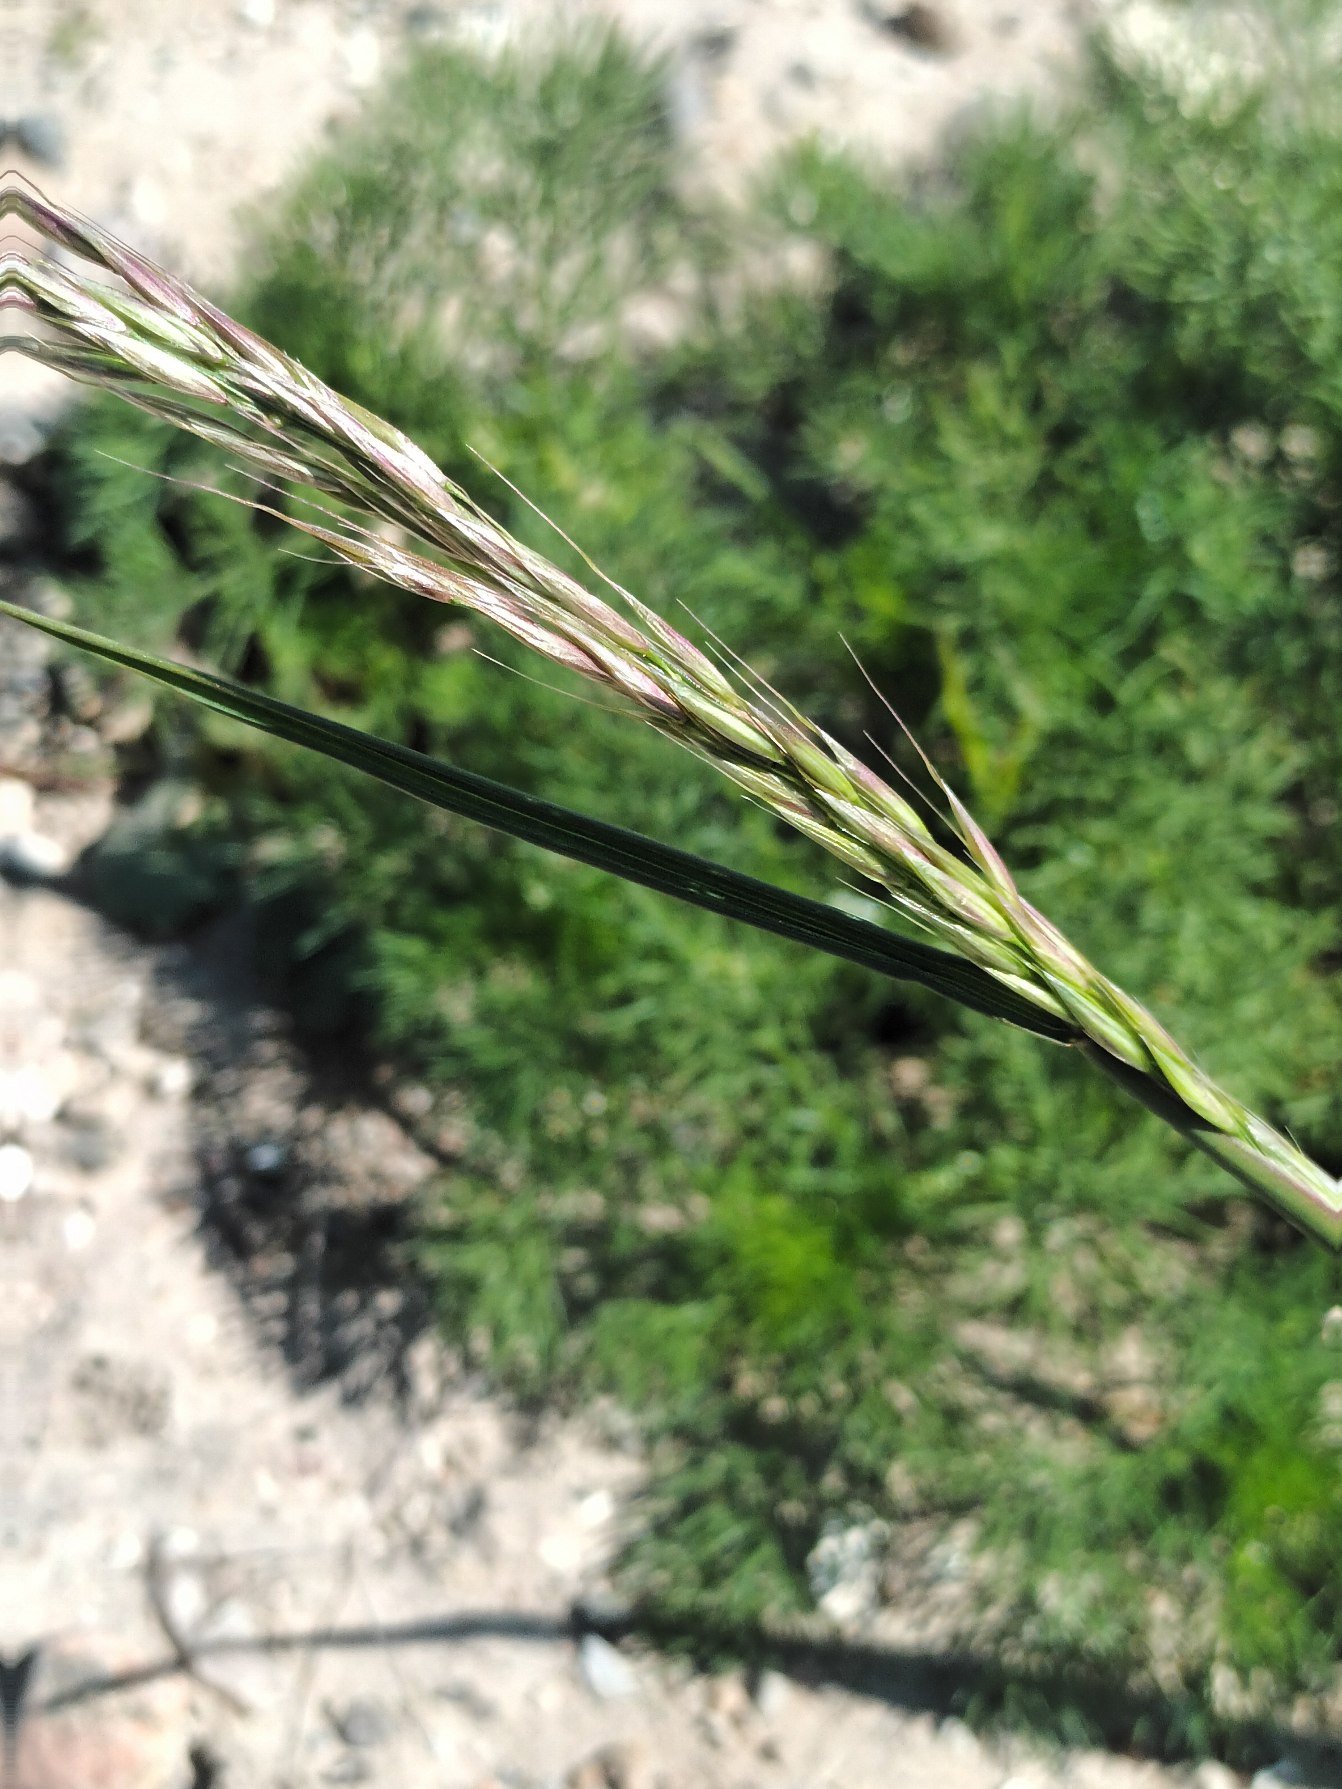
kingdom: Plantae
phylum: Tracheophyta
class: Liliopsida
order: Poales
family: Poaceae
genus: Arrhenatherum
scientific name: Arrhenatherum elatius
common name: Draphavre
